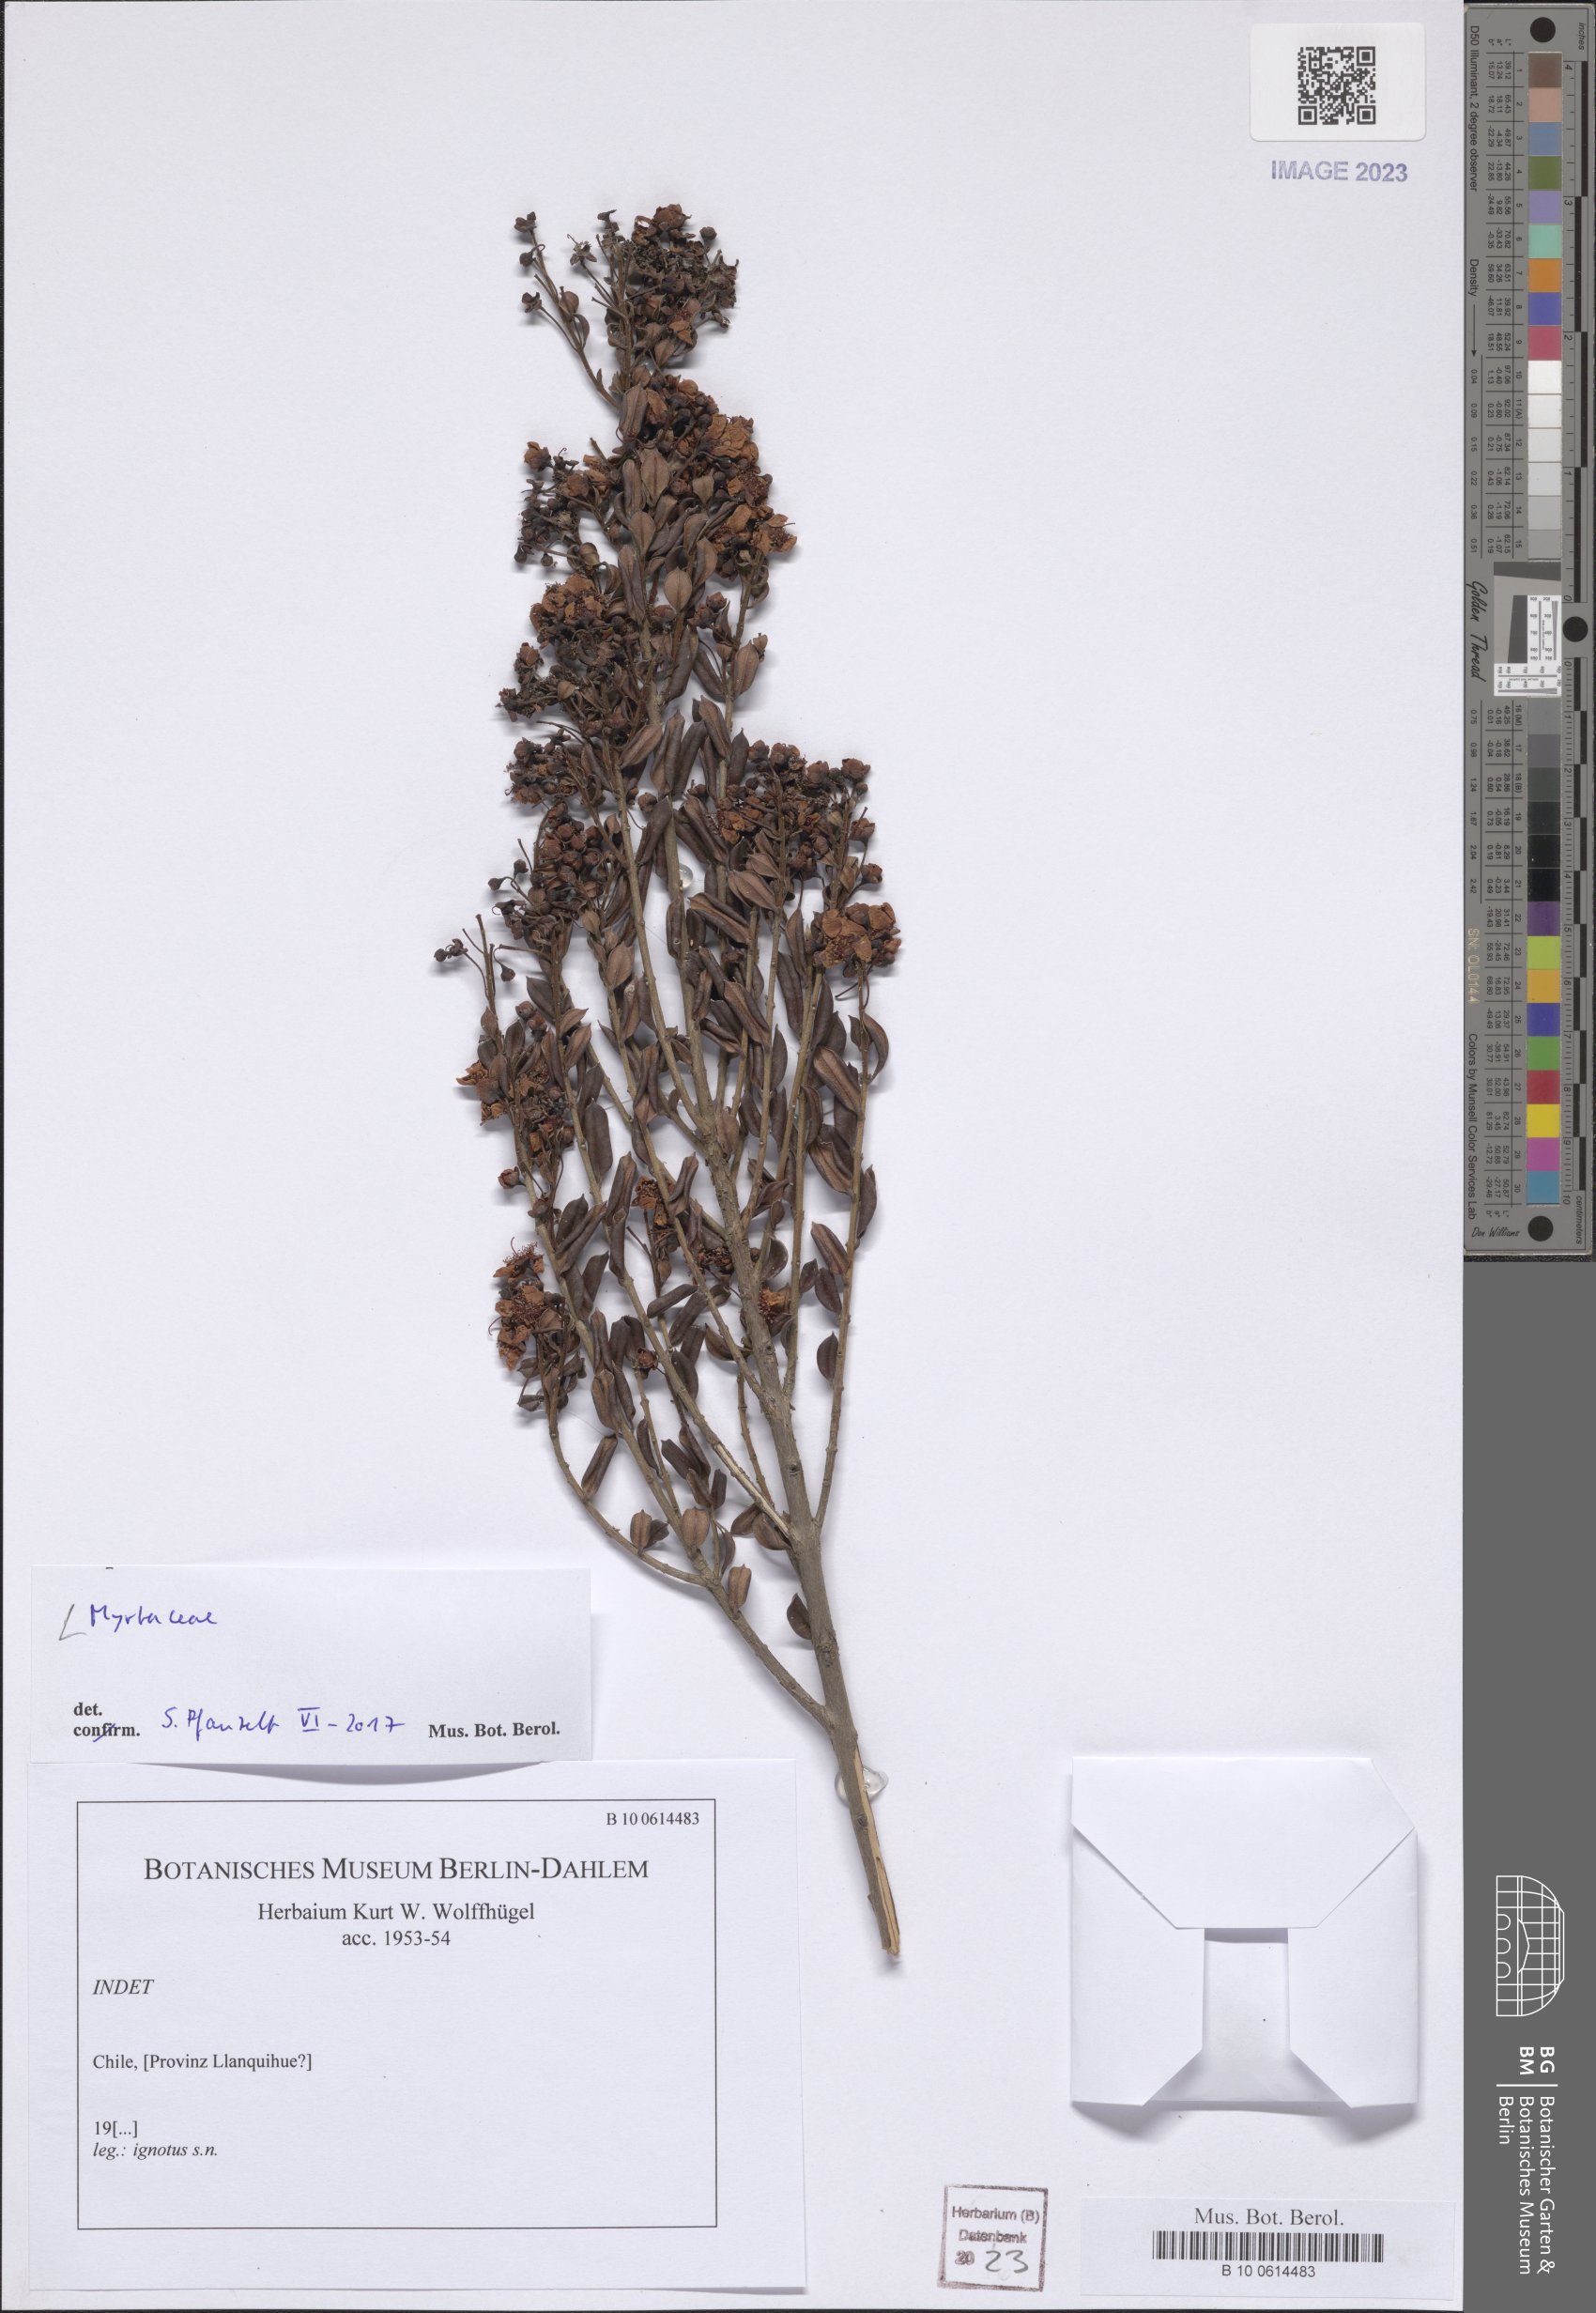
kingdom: Plantae
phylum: Tracheophyta
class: Magnoliopsida
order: Myrtales
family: Myrtaceae
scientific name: Myrtaceae
